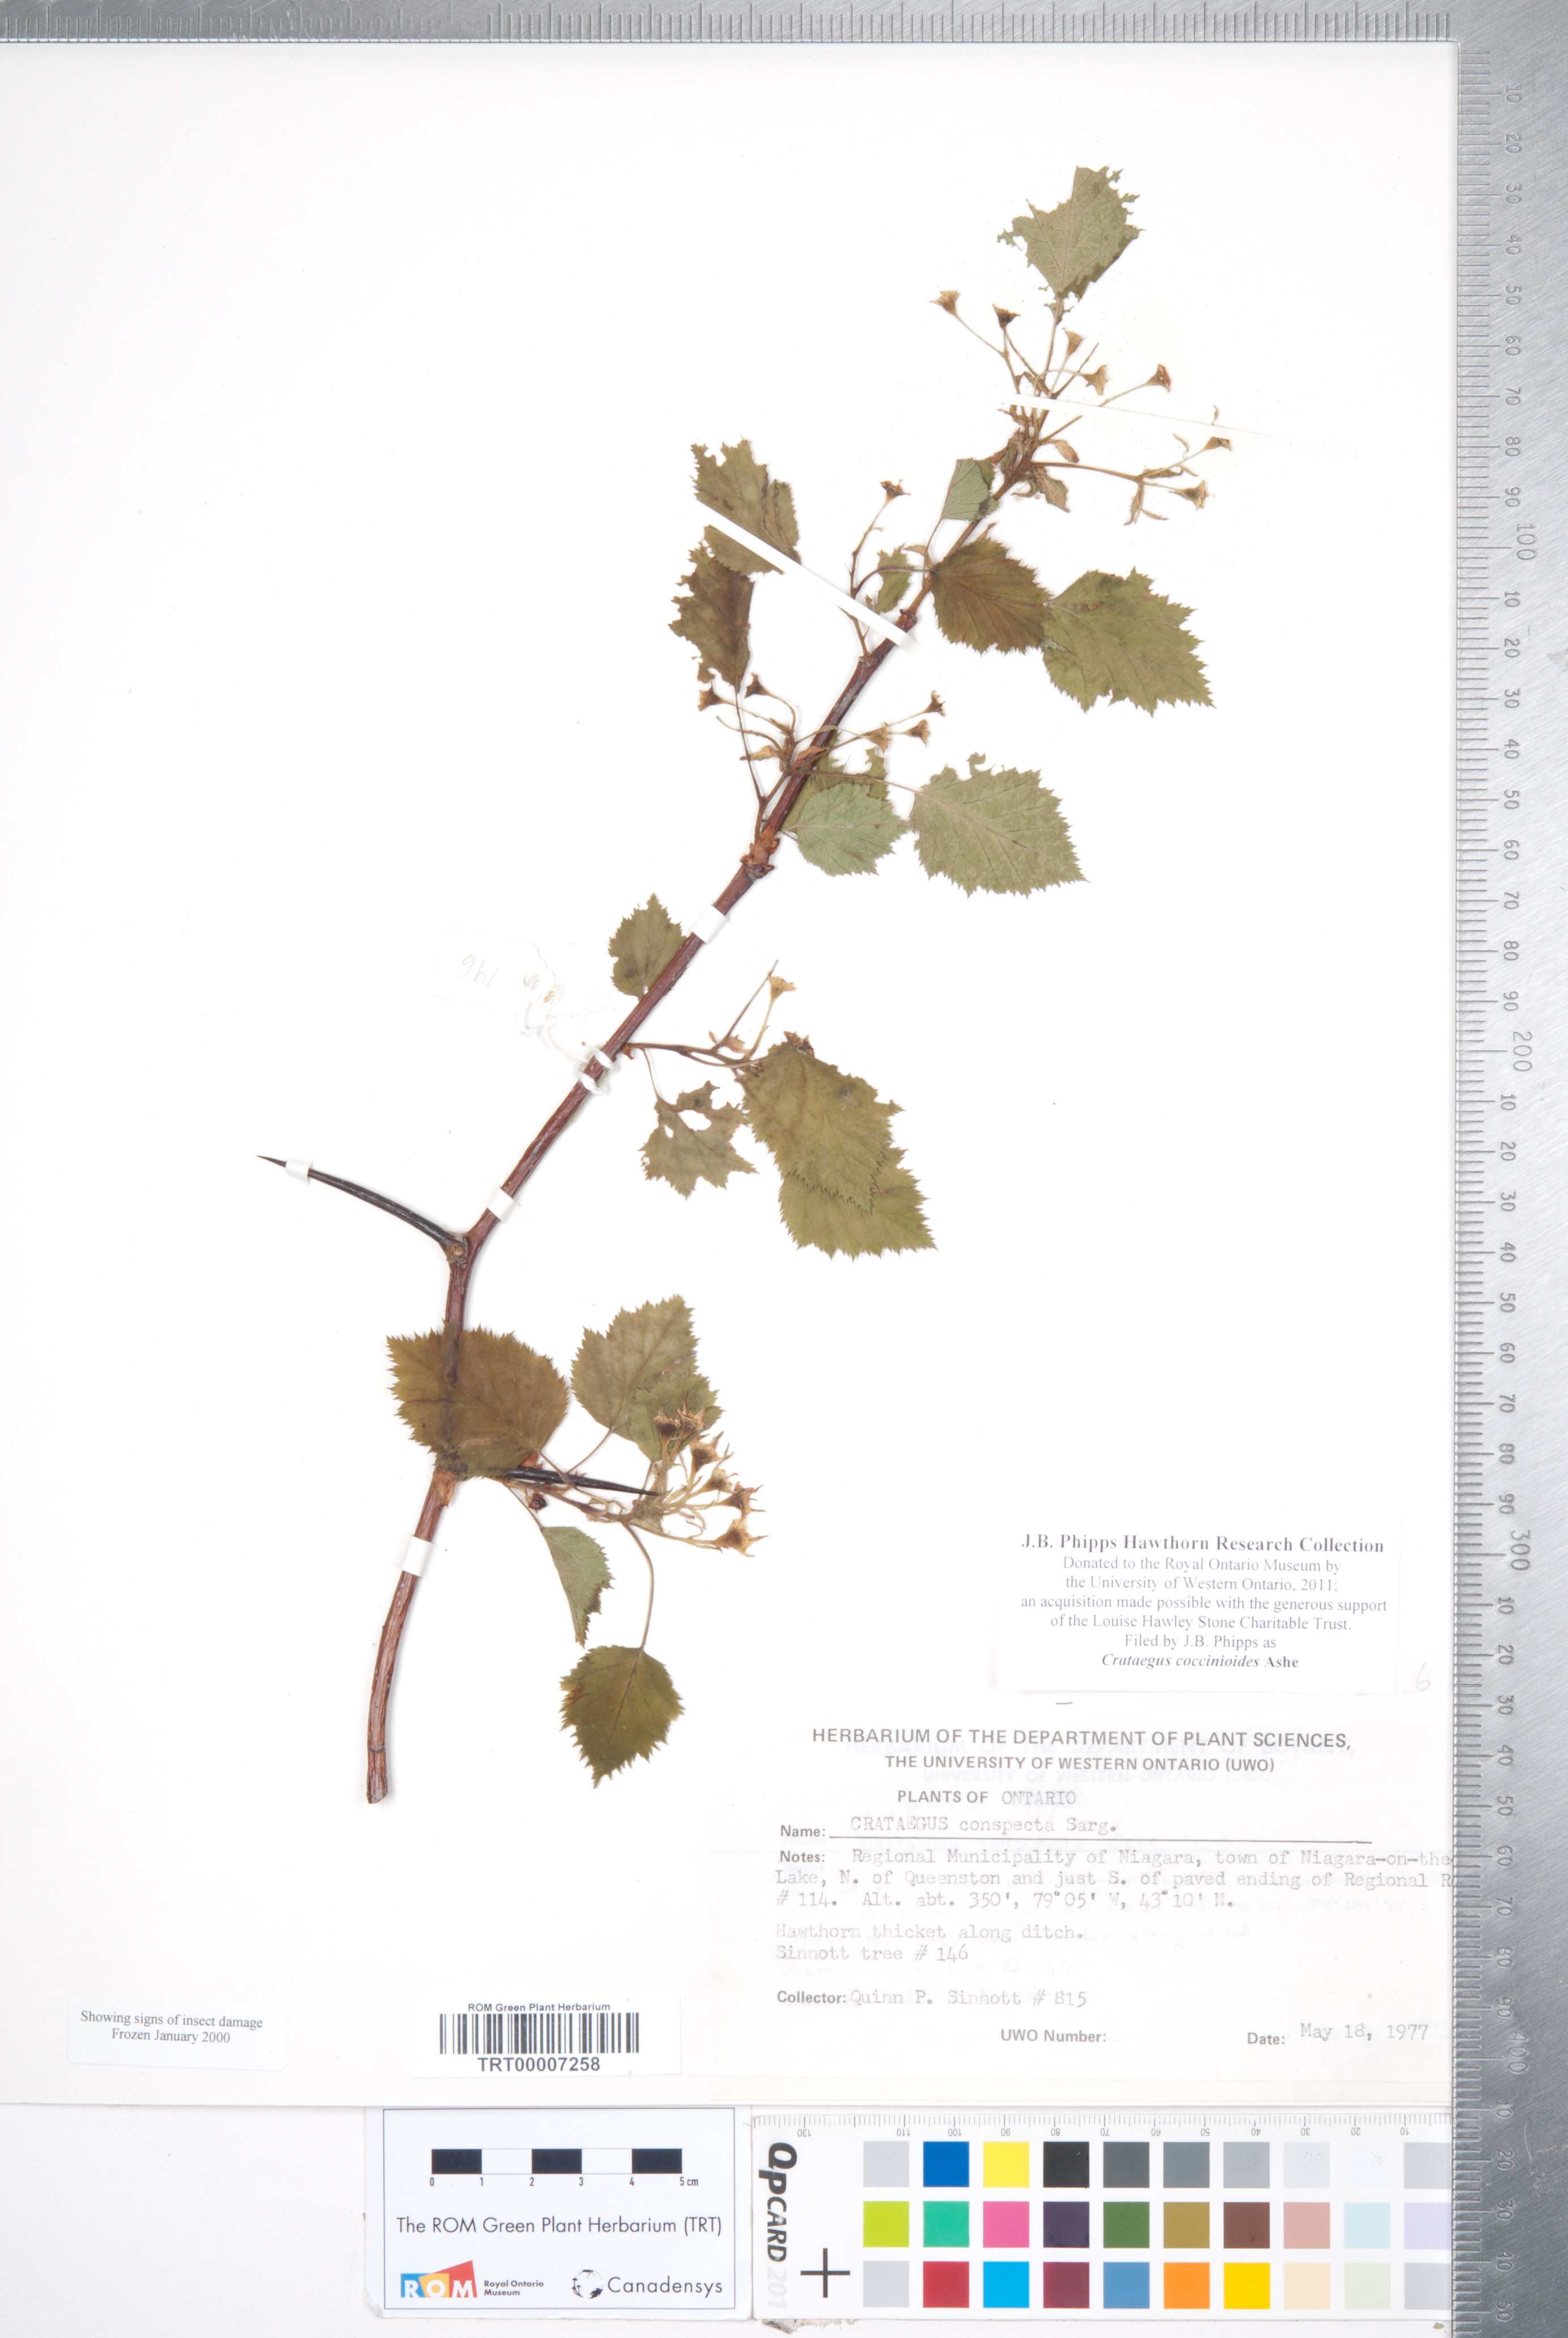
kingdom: Plantae
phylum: Tracheophyta
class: Magnoliopsida
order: Rosales
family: Rosaceae
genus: Crataegus
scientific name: Crataegus coccinioides
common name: Large-flowered cockspurthorn
